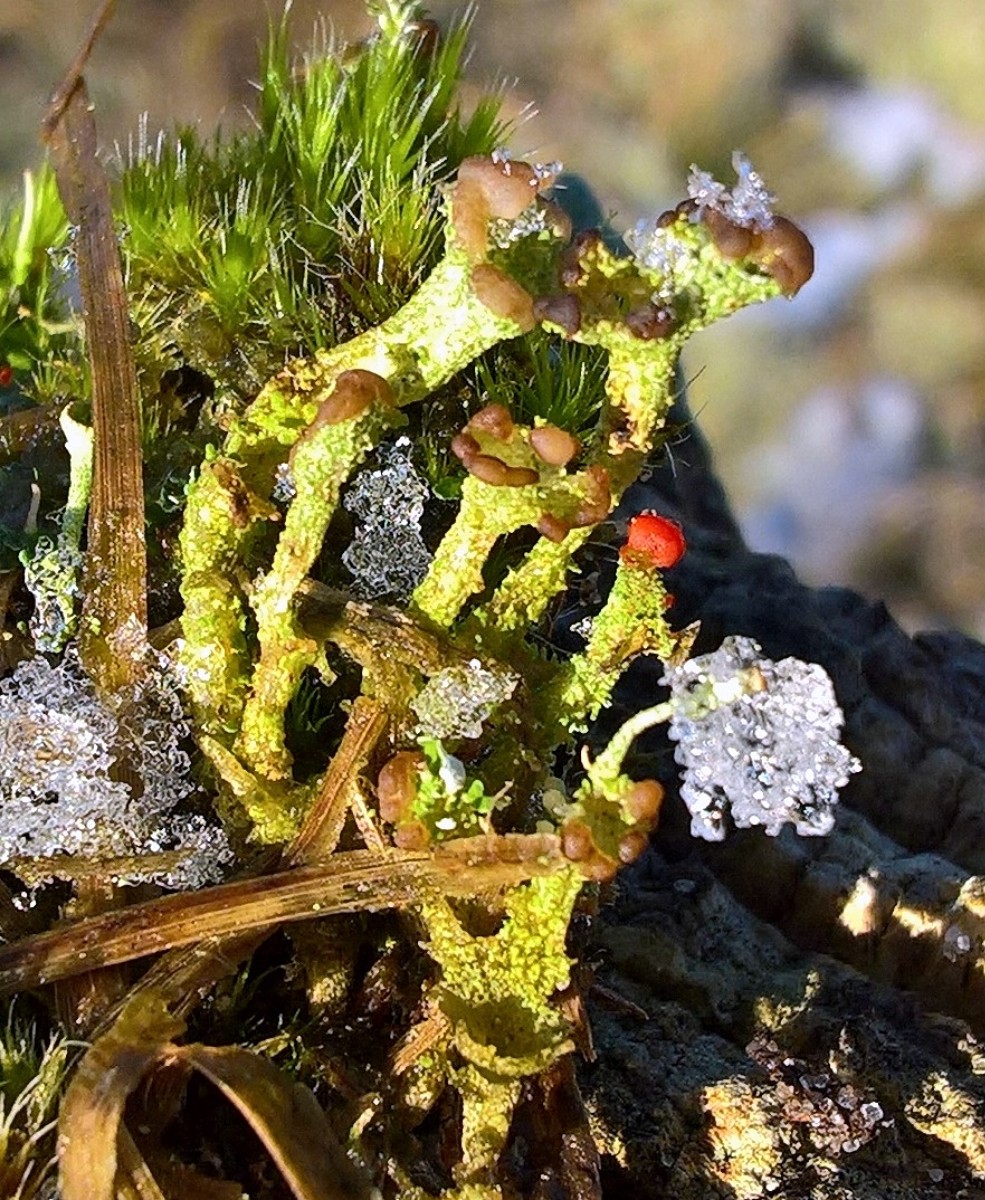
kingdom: Fungi
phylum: Ascomycota
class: Lecanoromycetes
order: Lecanorales
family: Cladoniaceae
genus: Cladonia
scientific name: Cladonia ramulosa
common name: kliddet bægerlav
